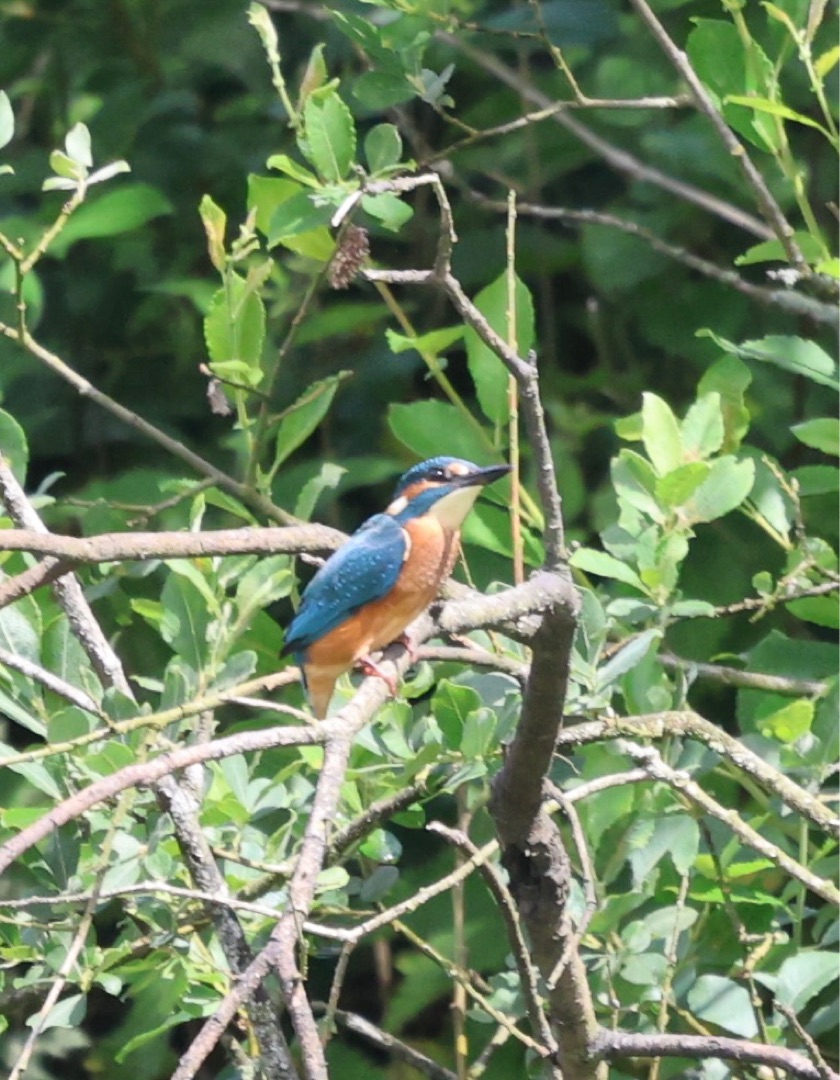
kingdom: Animalia
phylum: Chordata
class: Aves
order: Coraciiformes
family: Alcedinidae
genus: Alcedo
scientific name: Alcedo atthis
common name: Isfugl
